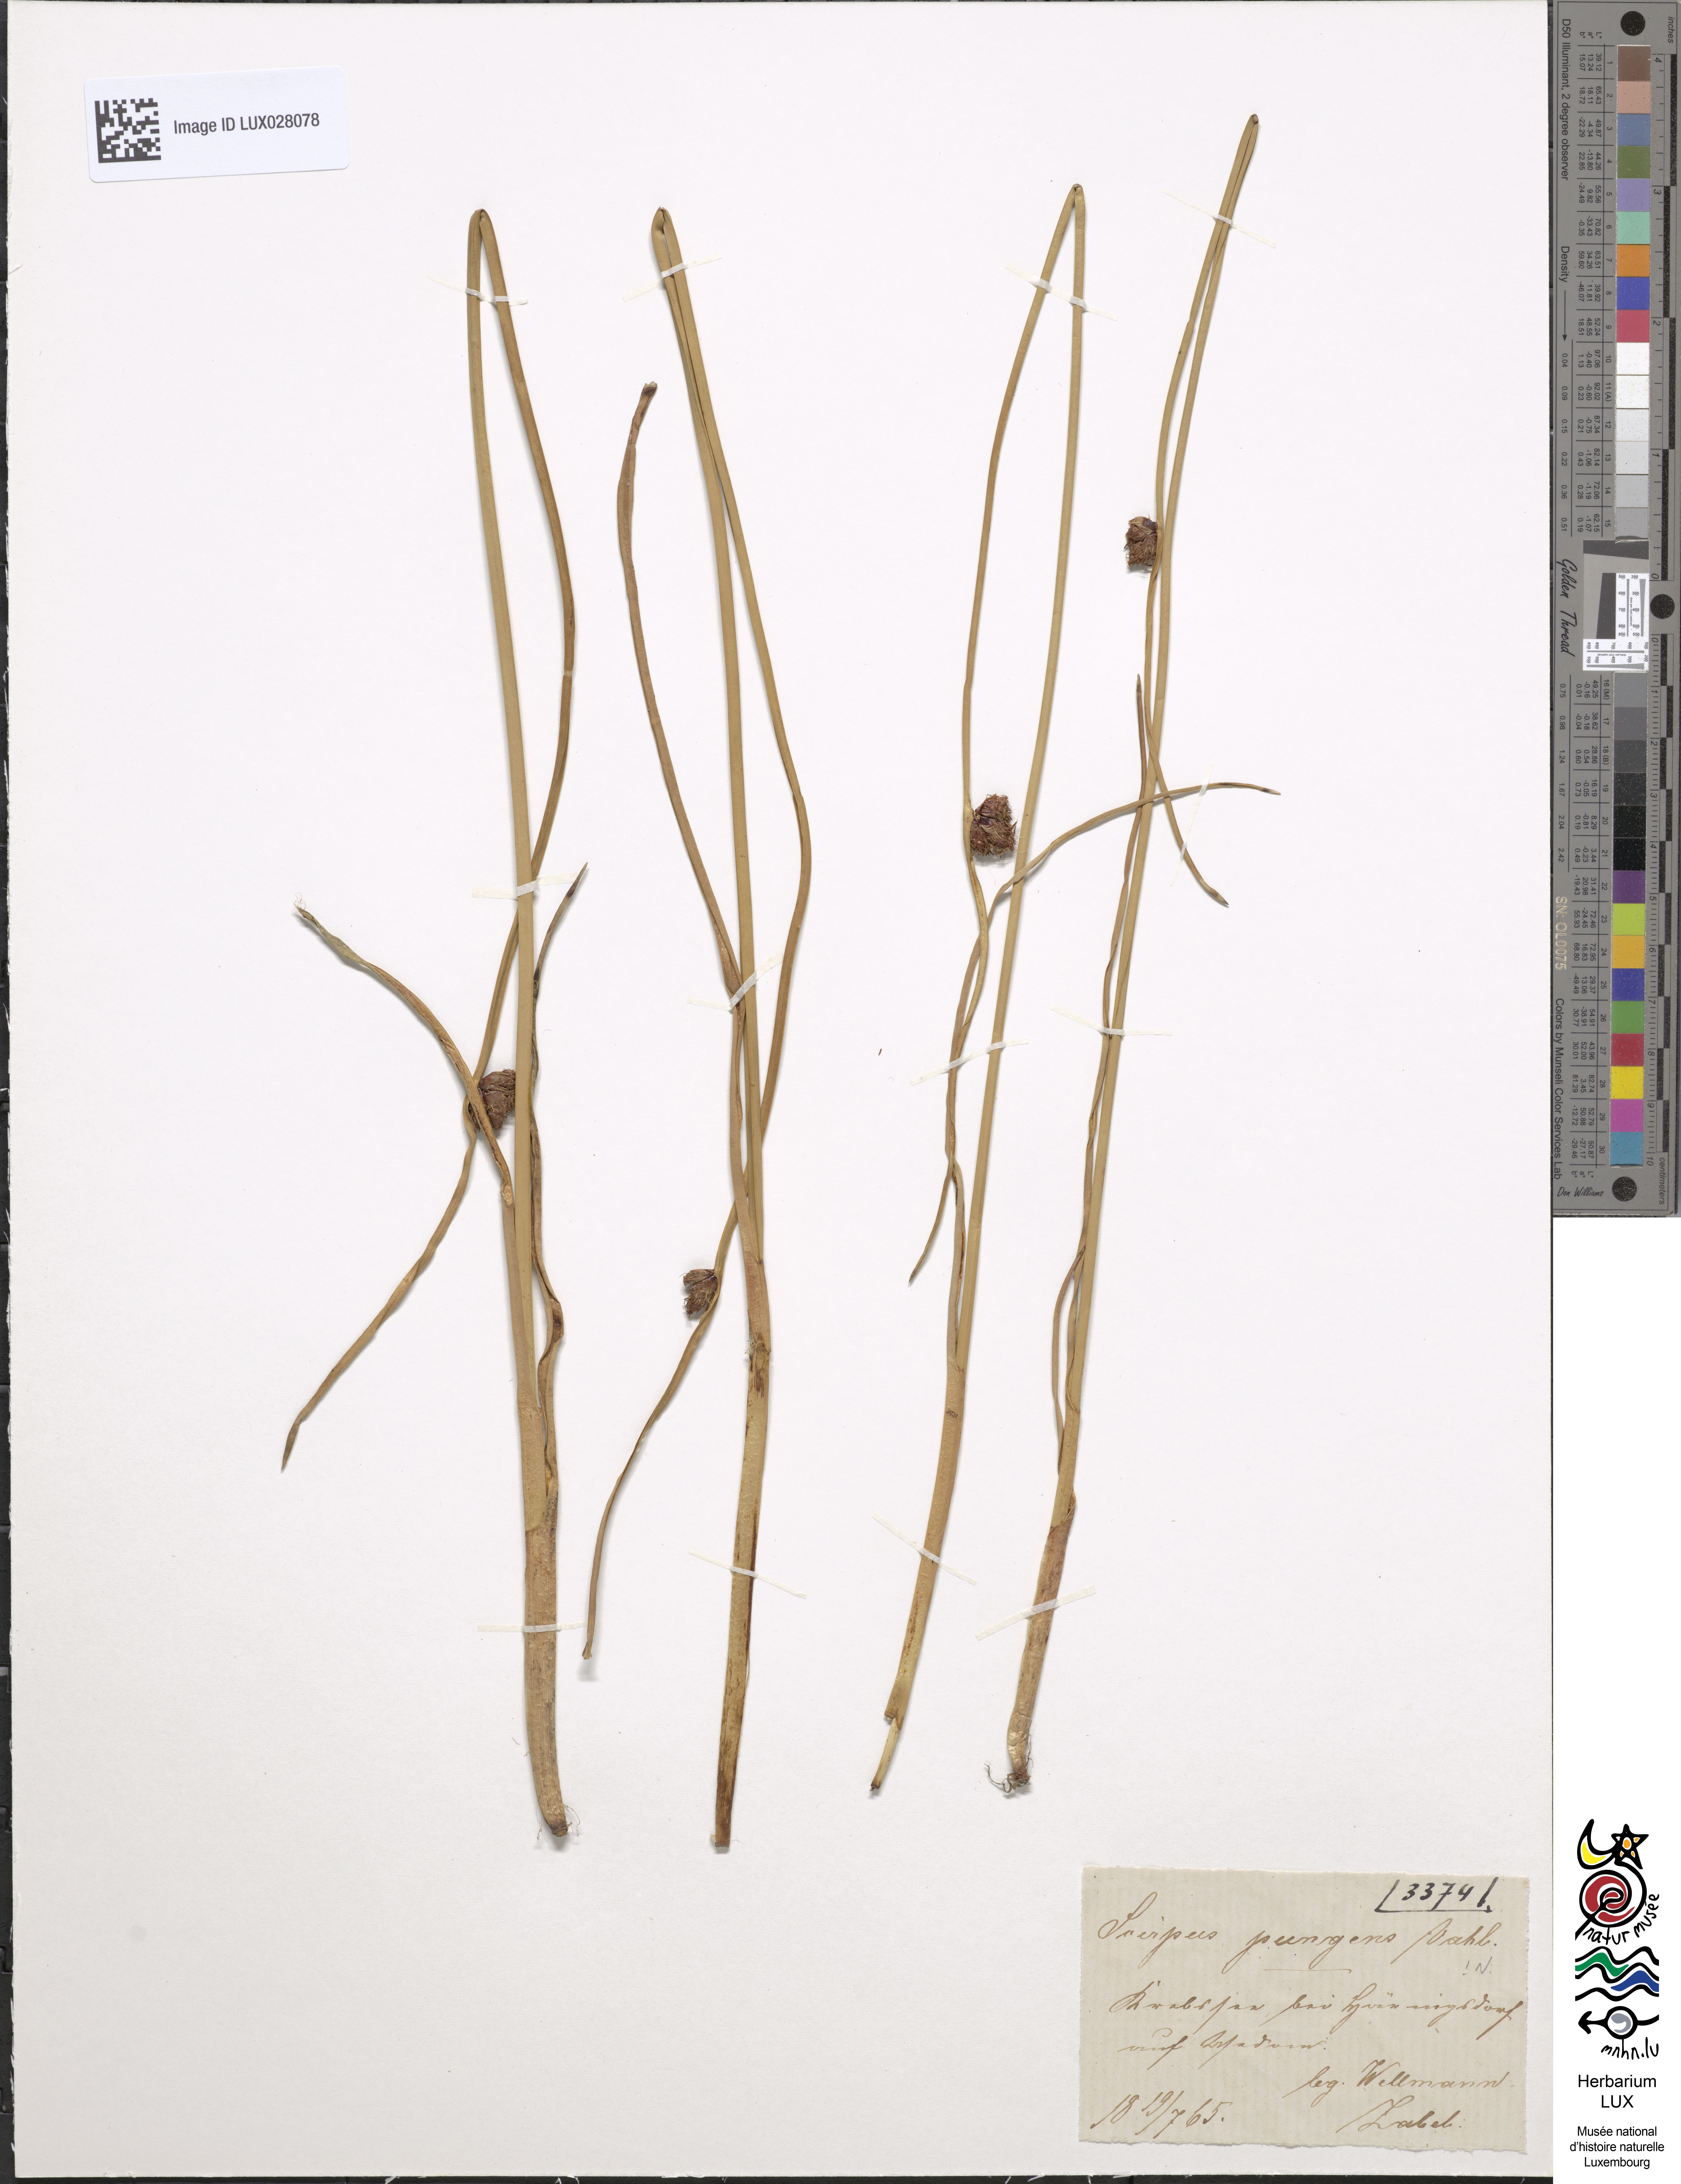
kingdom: Plantae
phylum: Tracheophyta
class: Liliopsida
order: Poales
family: Cyperaceae
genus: Schoenoplectus
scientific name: Schoenoplectus pungens
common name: Sharp club-rush
